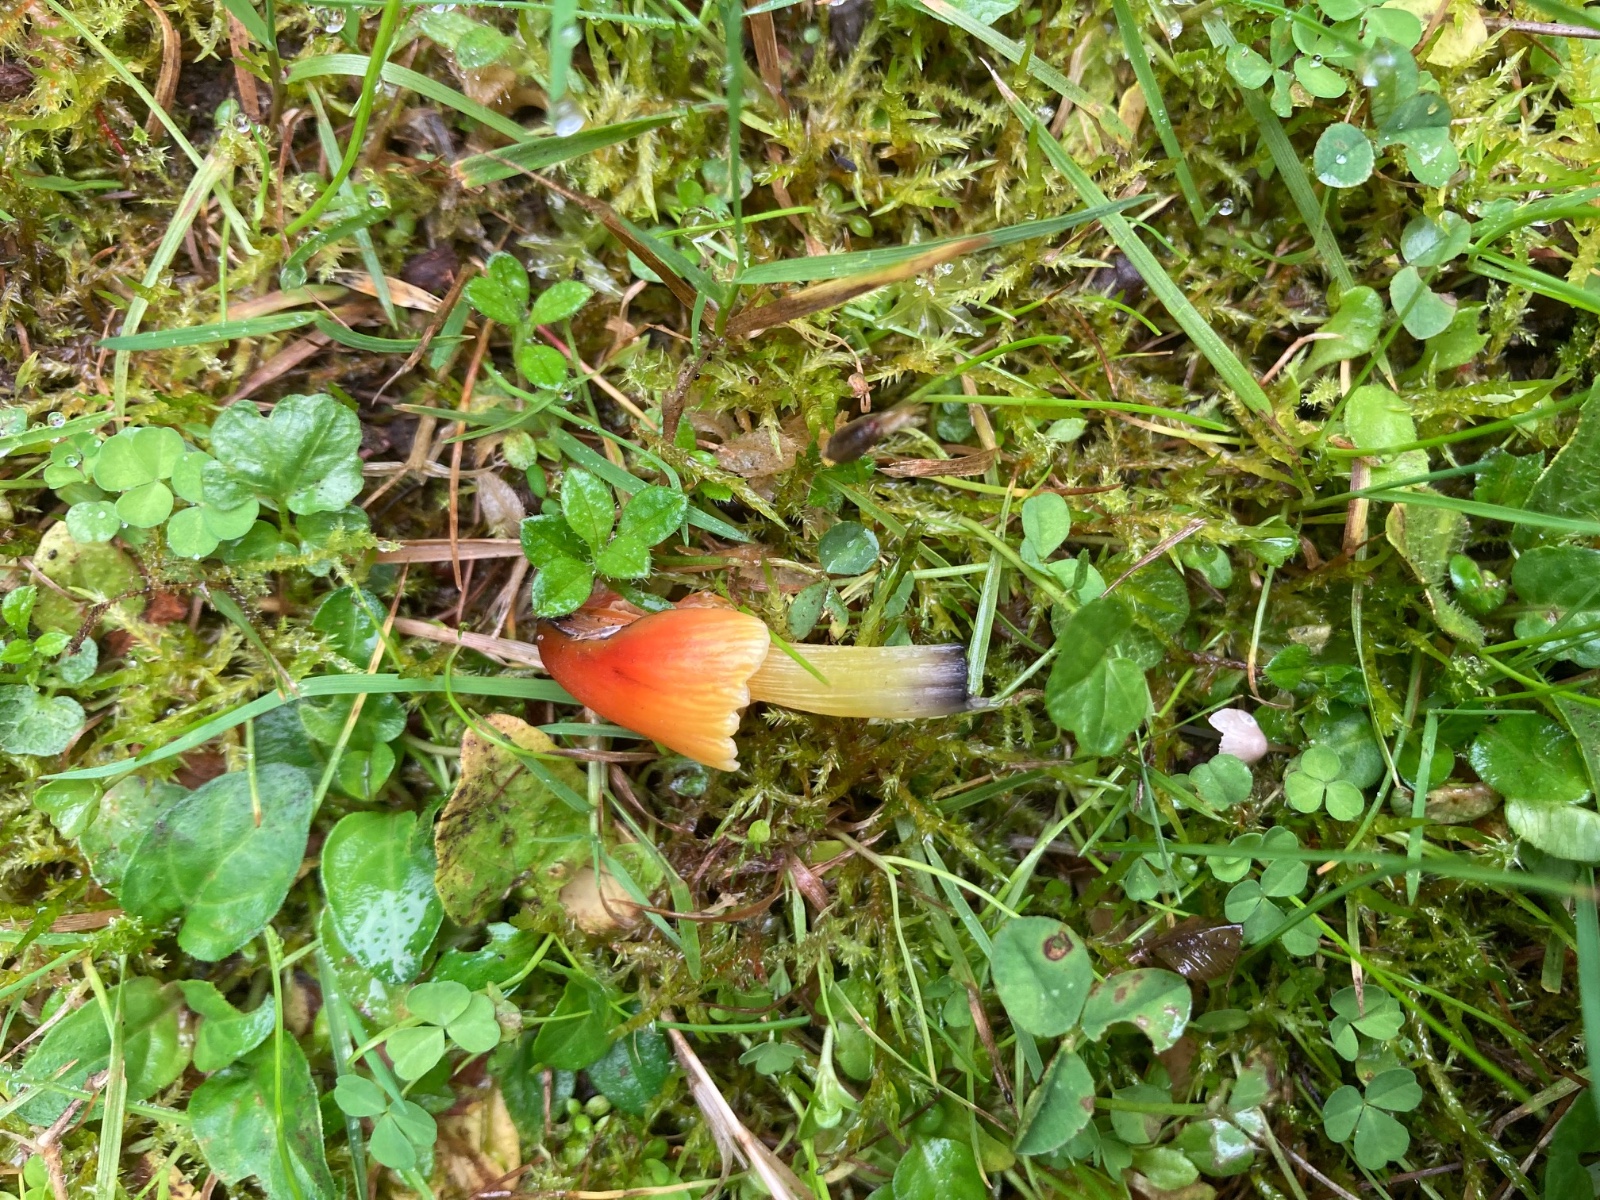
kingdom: Fungi
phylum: Basidiomycota
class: Agaricomycetes
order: Agaricales
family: Hygrophoraceae
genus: Hygrocybe
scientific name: Hygrocybe conica
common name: kegle-vokshat
